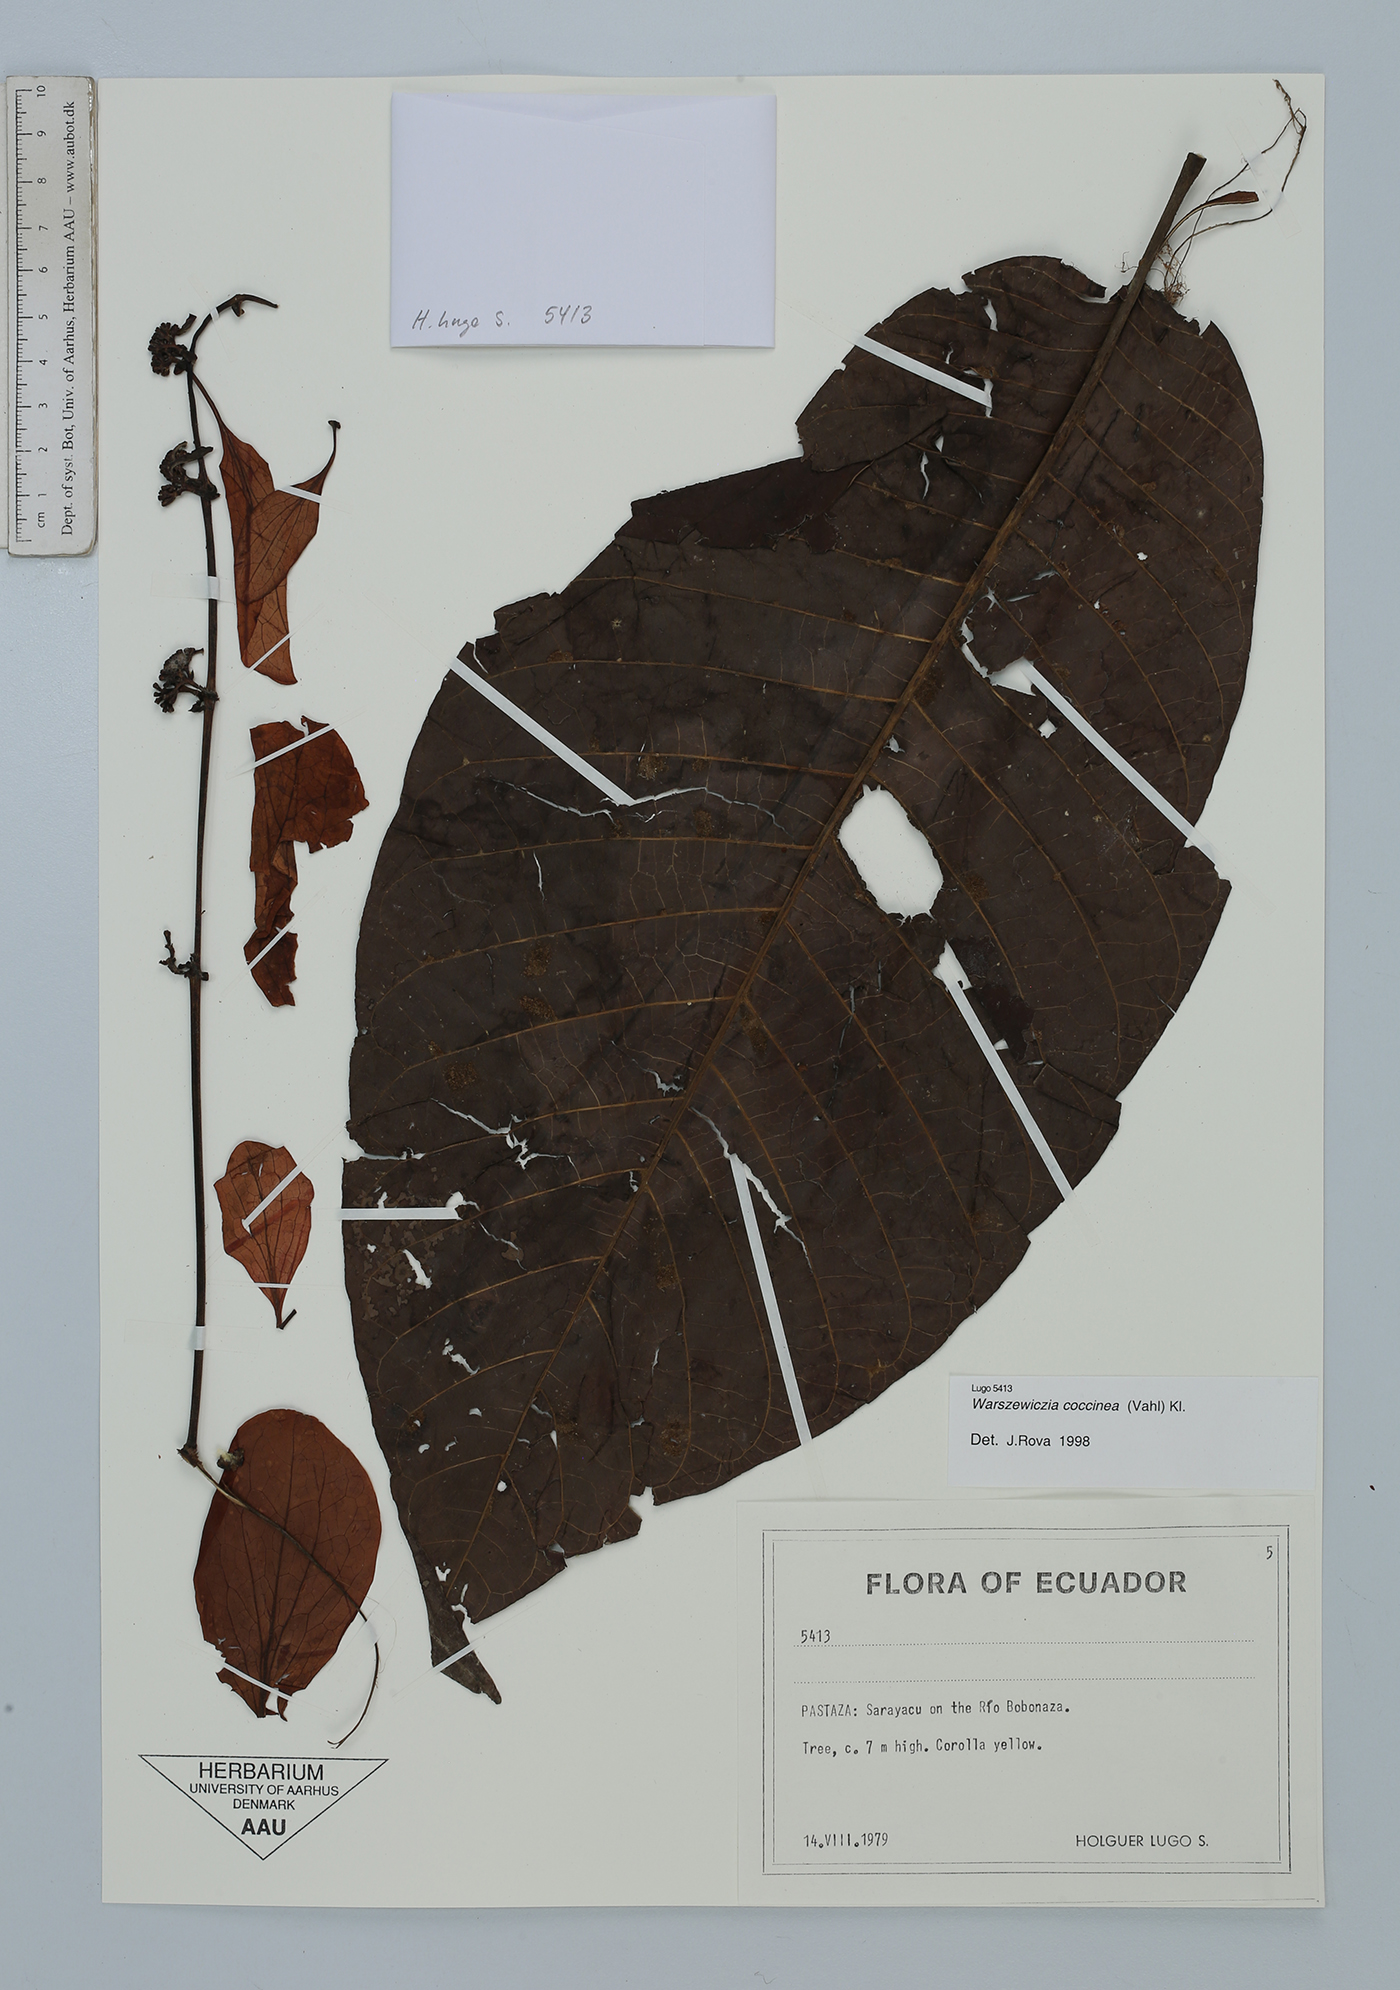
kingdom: Plantae
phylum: Tracheophyta
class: Magnoliopsida
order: Gentianales
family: Rubiaceae
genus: Warszewiczia
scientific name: Warszewiczia coccinea
